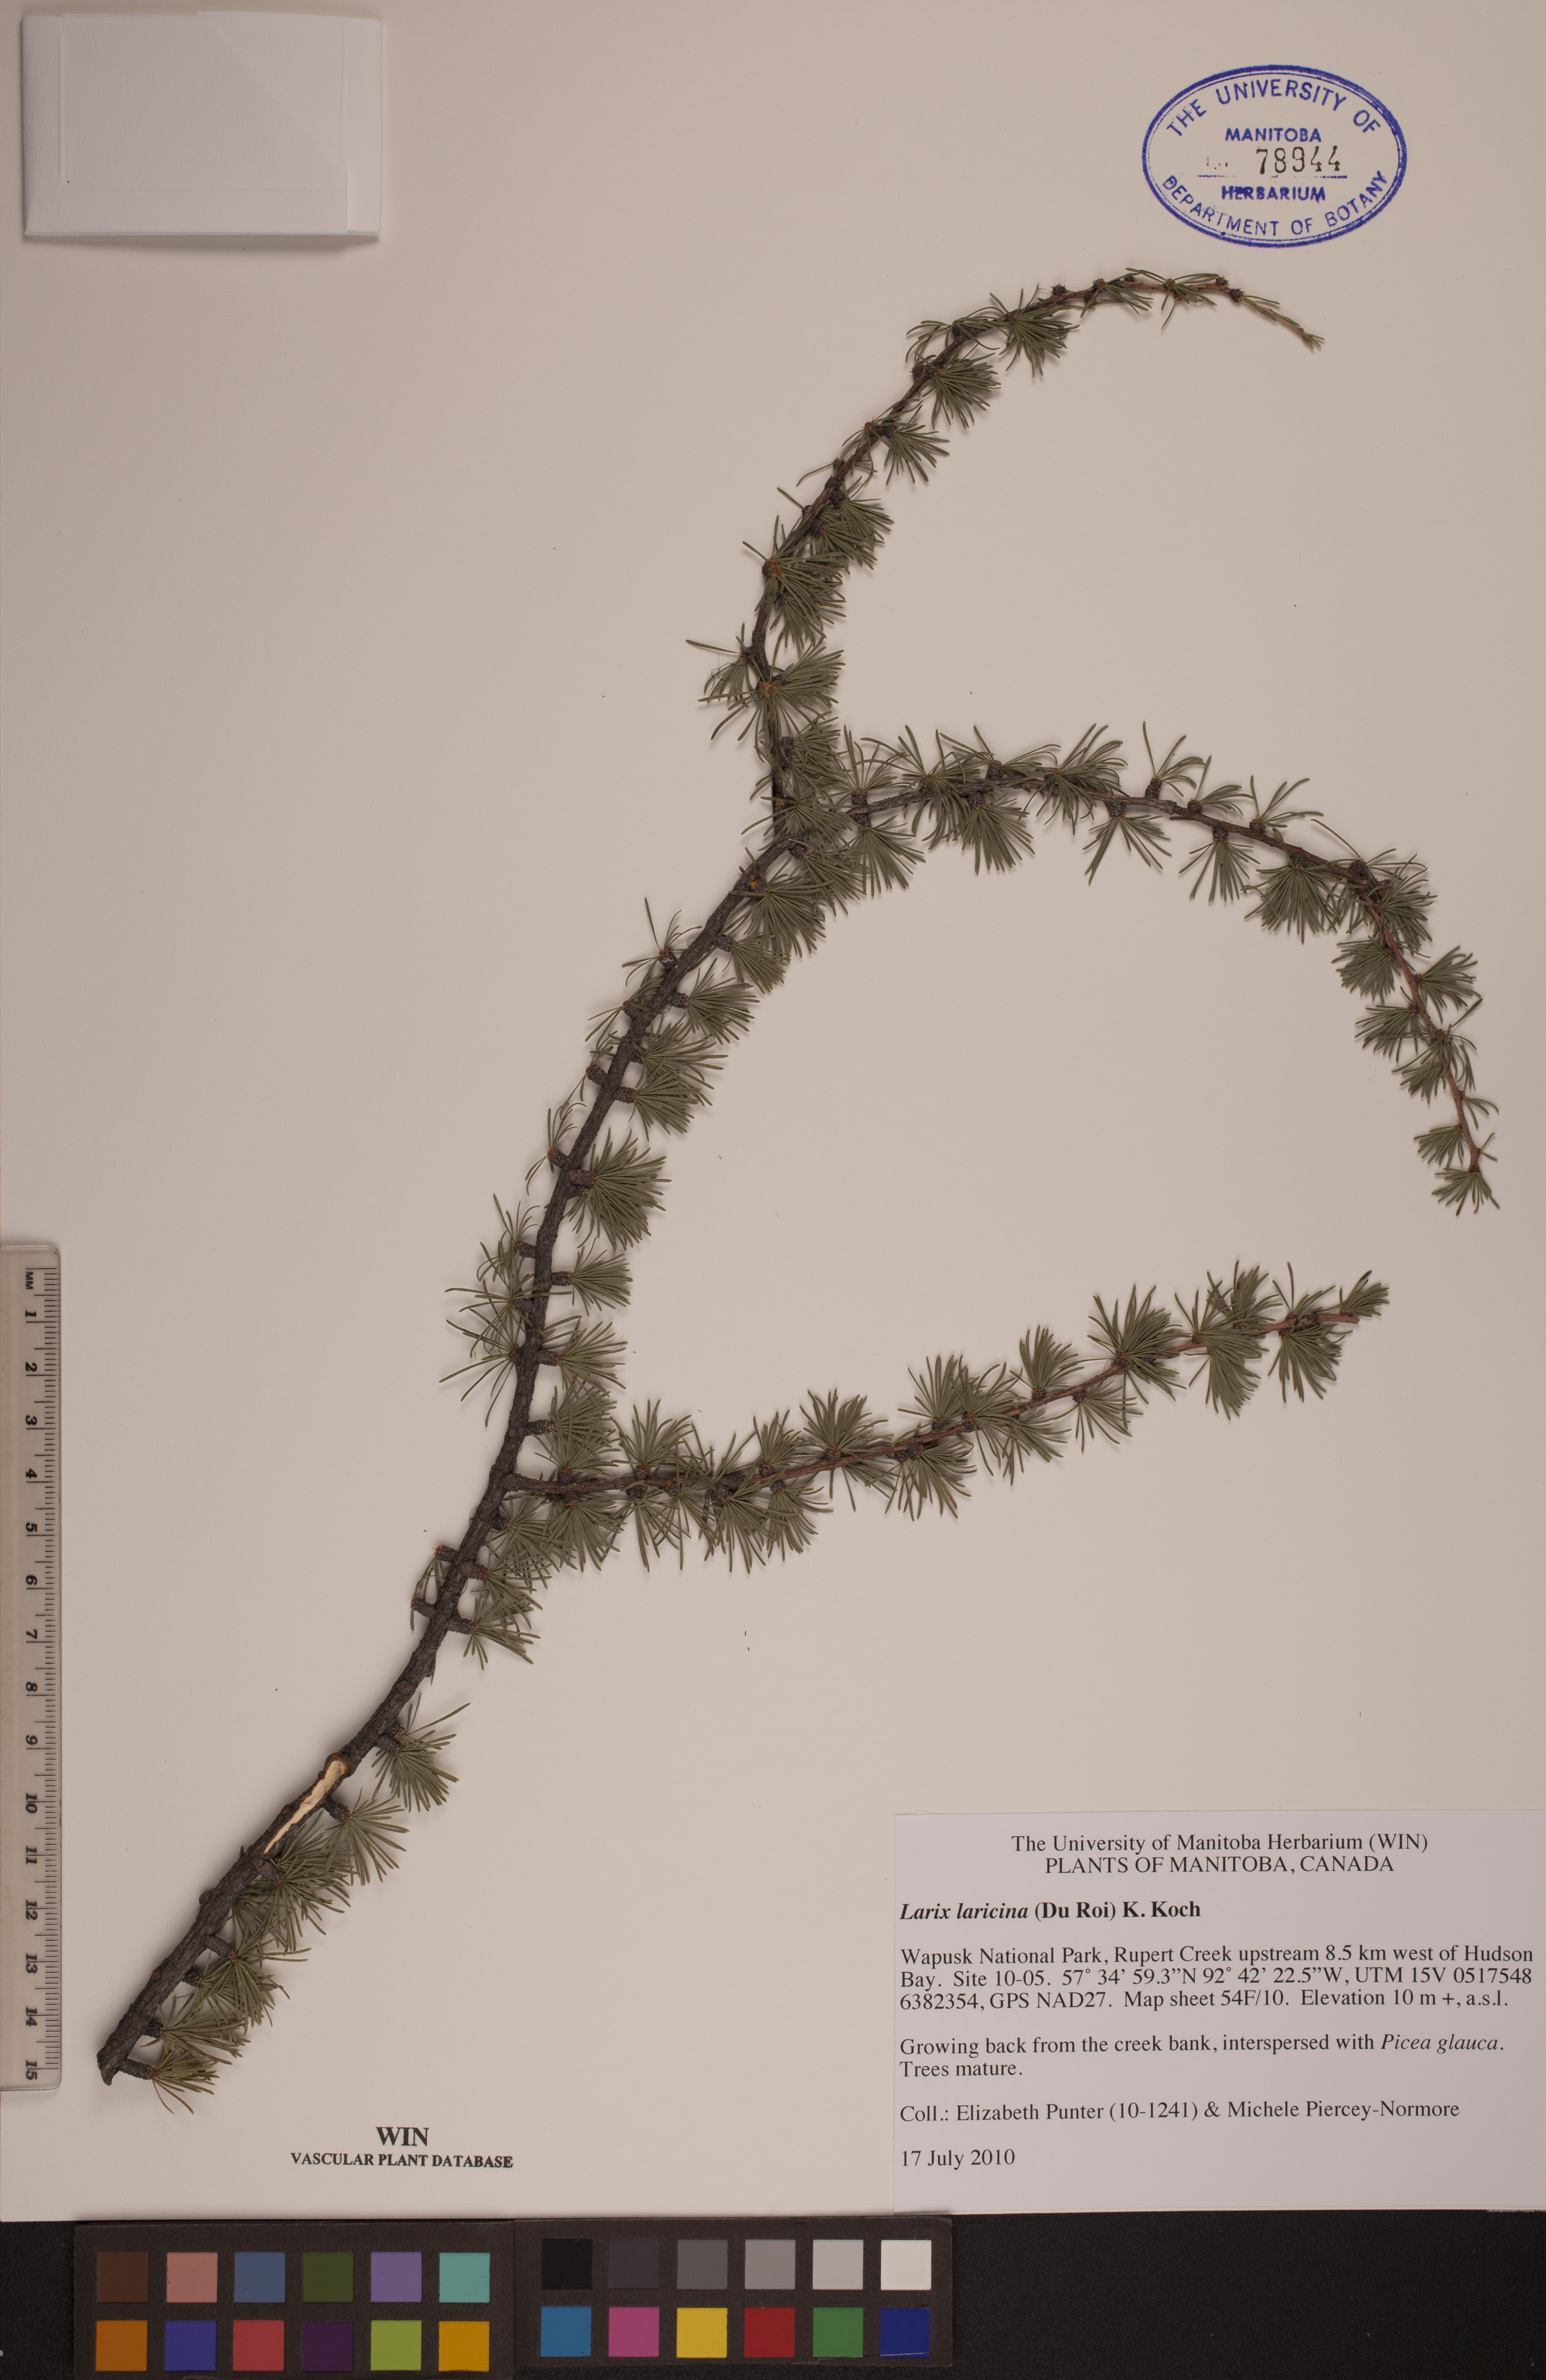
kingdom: Plantae
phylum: Tracheophyta
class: Pinopsida
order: Pinales
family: Pinaceae
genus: Larix
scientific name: Larix laricina
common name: American larch
